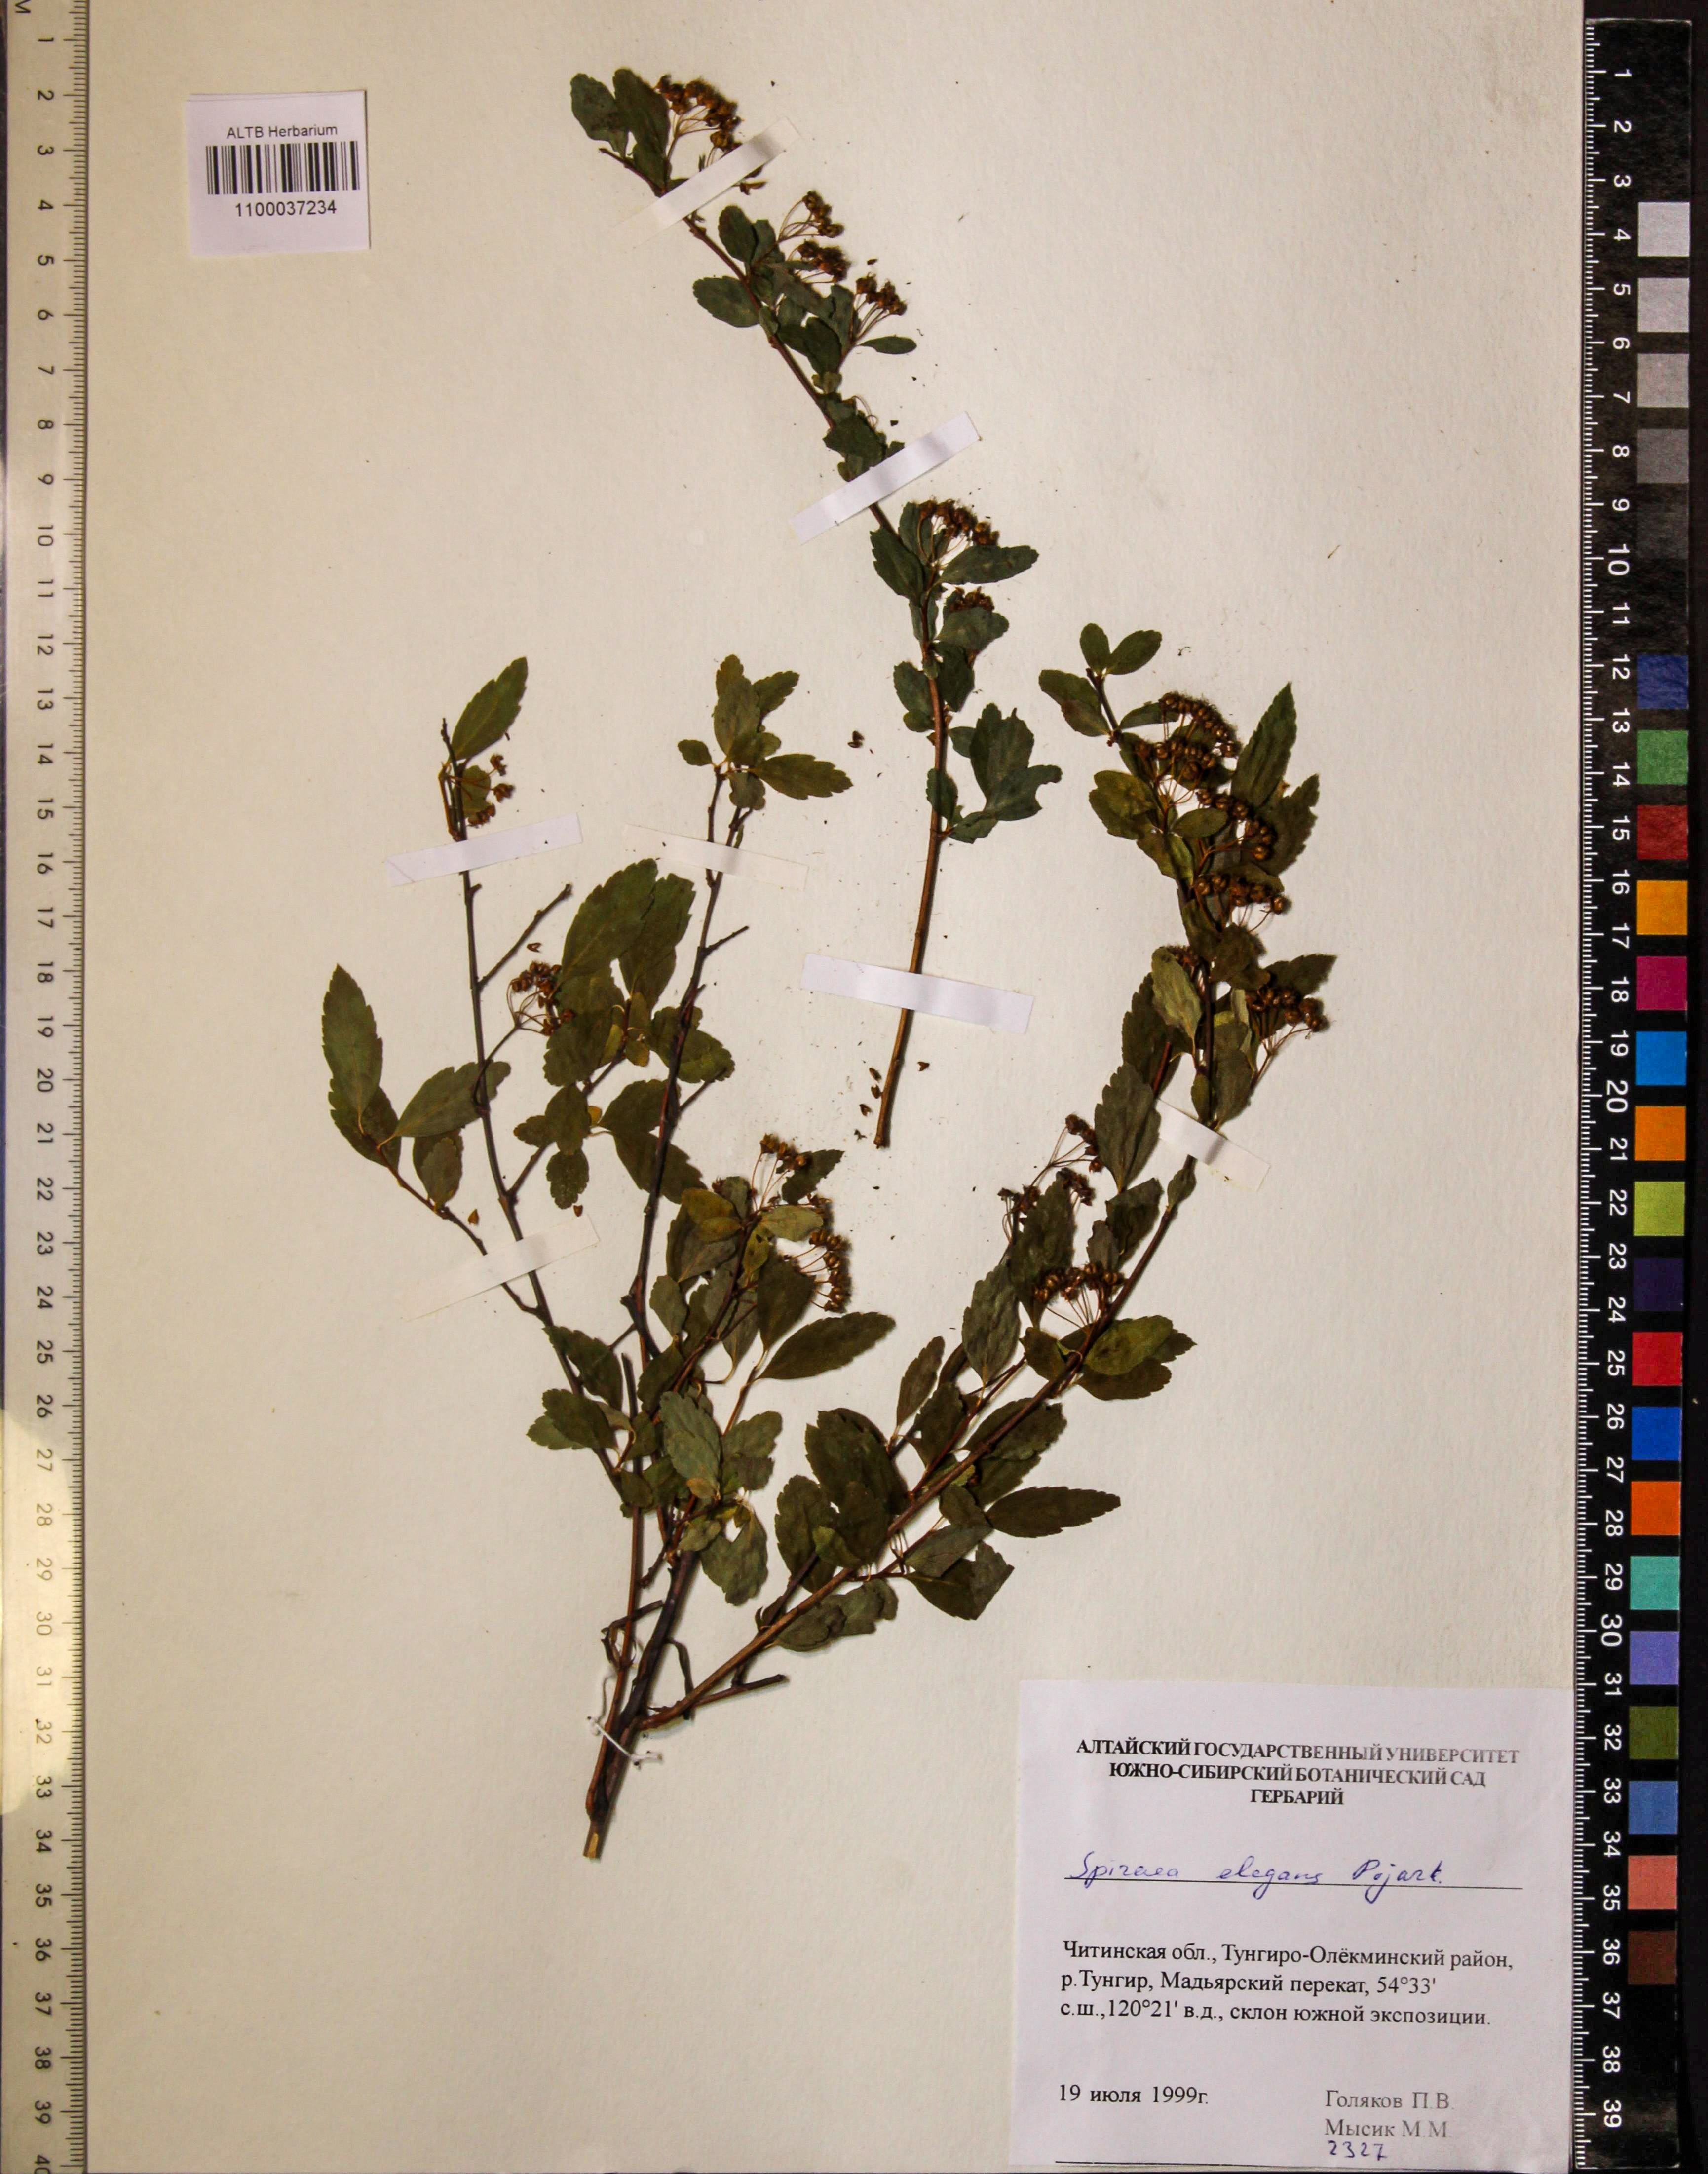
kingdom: Plantae
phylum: Tracheophyta
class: Magnoliopsida
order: Rosales
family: Rosaceae
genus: Spiraea
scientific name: Spiraea elegans
